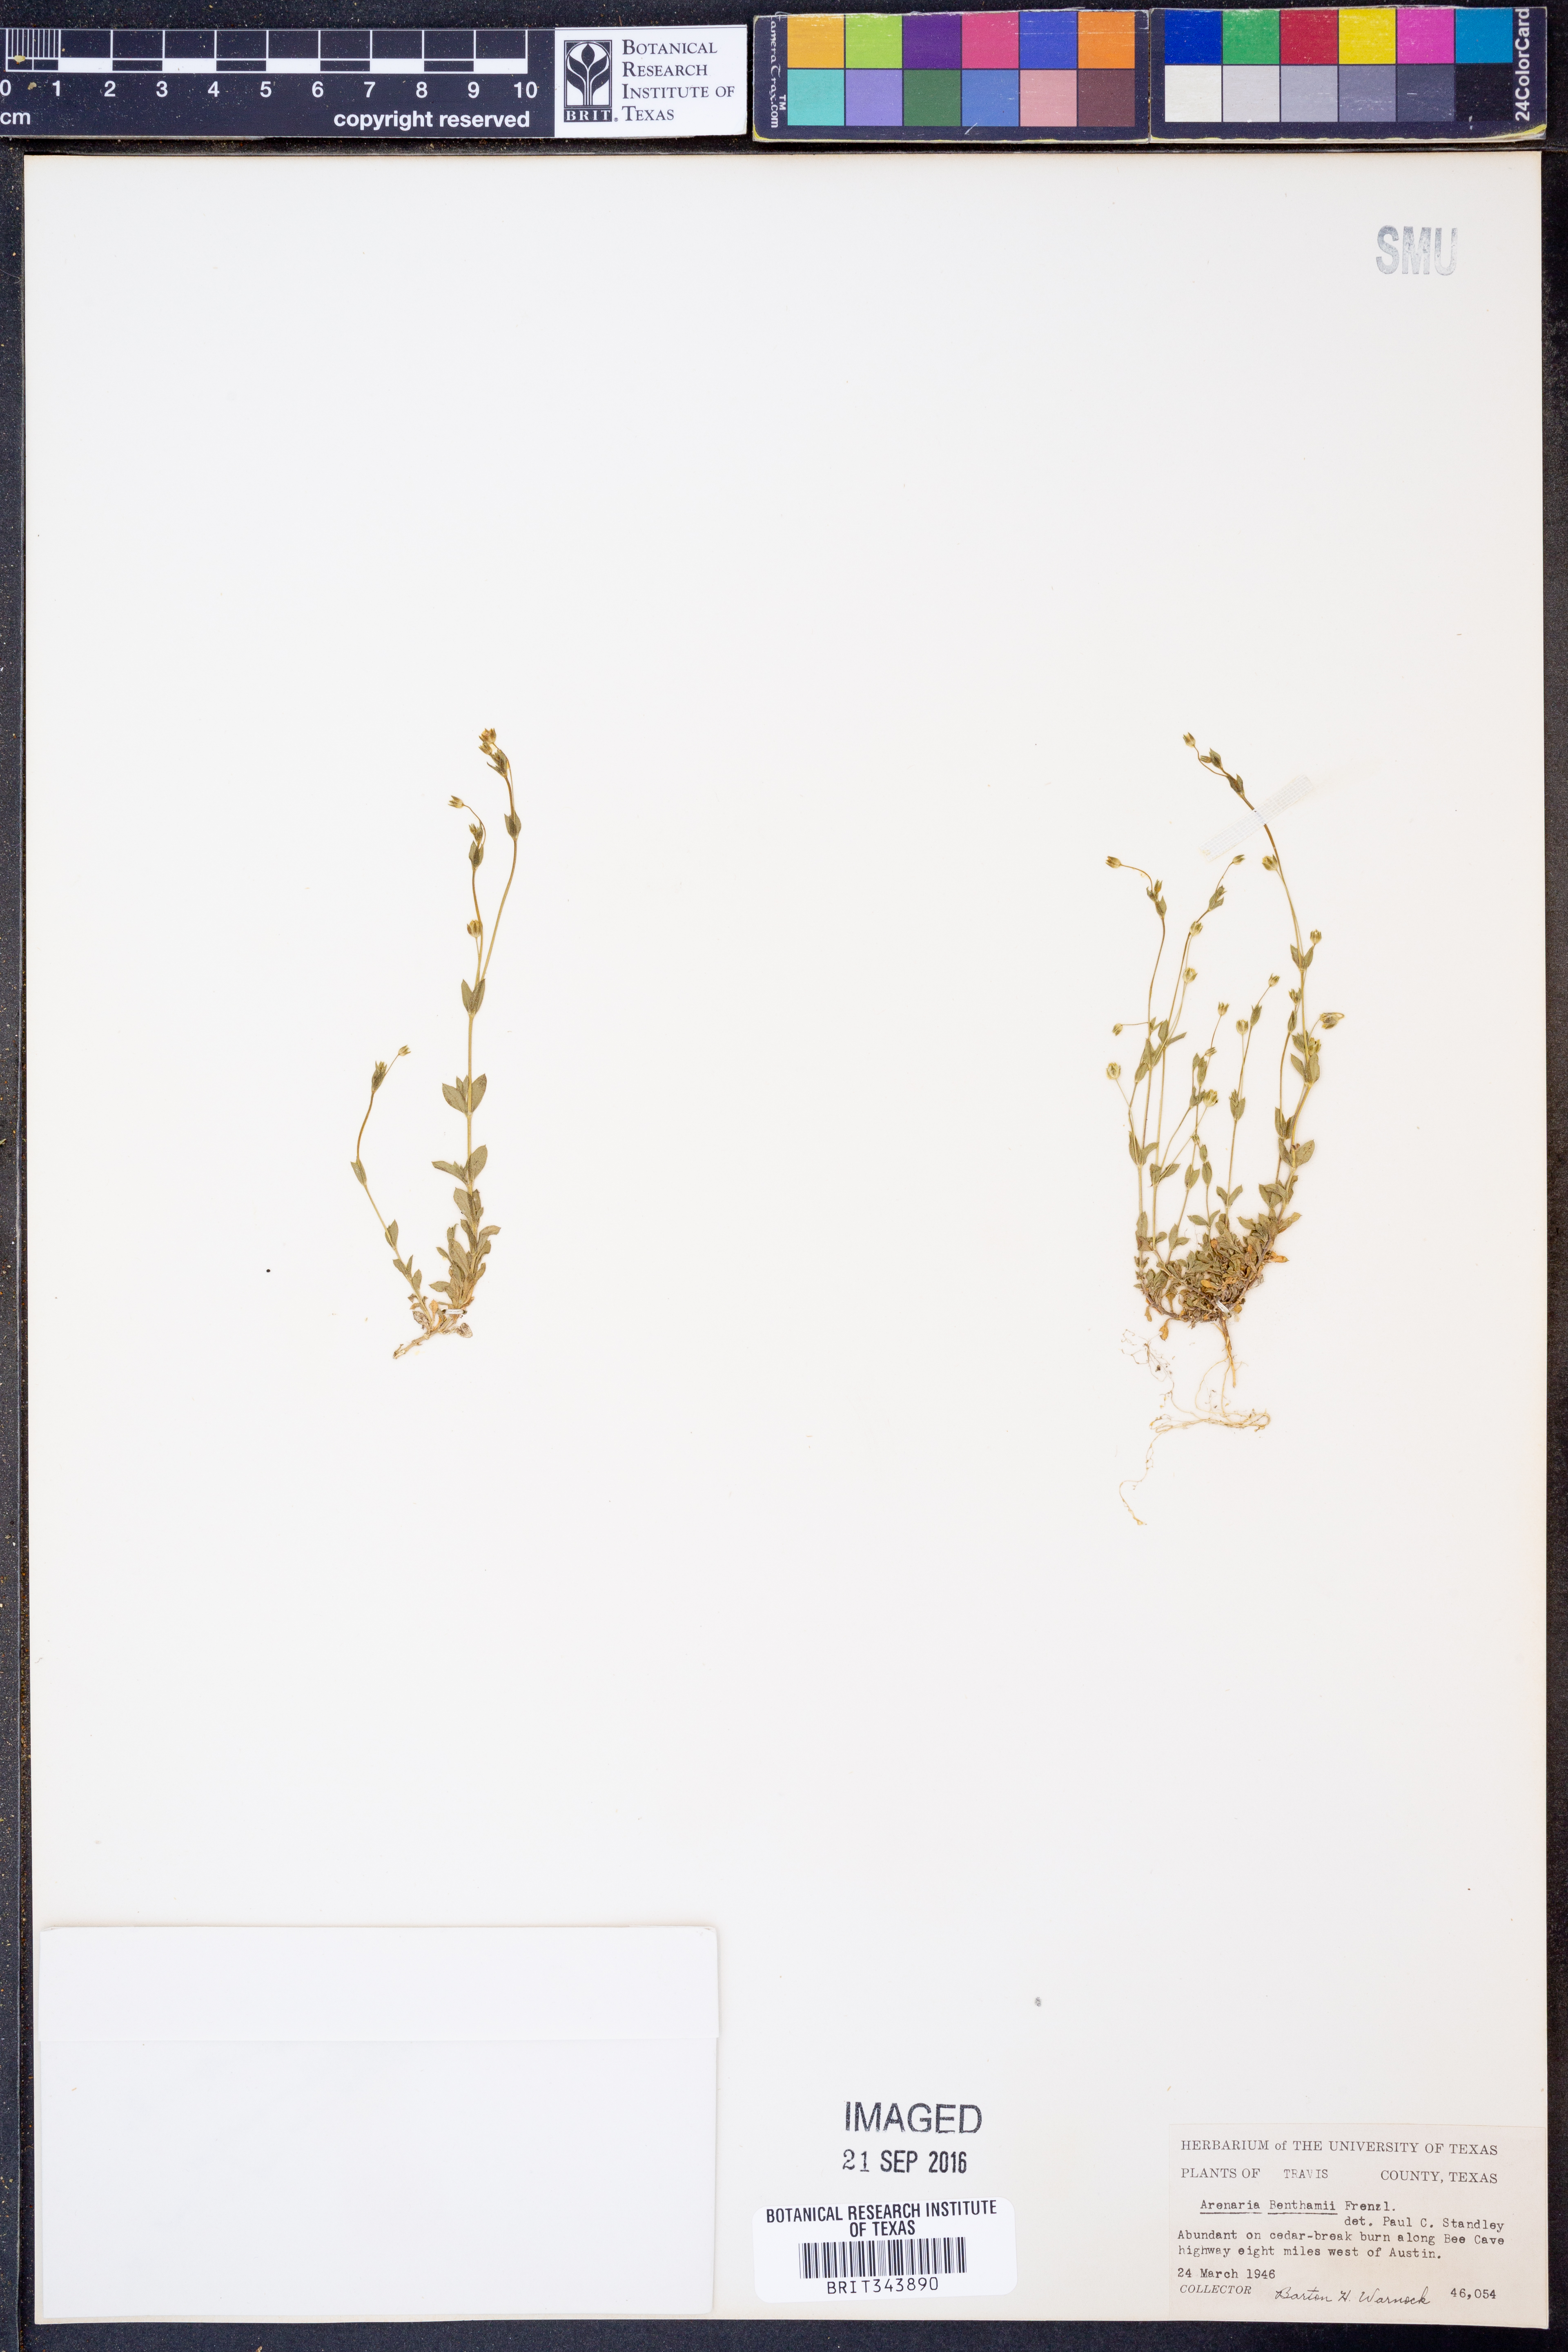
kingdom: Plantae
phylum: Tracheophyta
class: Magnoliopsida
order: Caryophyllales
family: Caryophyllaceae
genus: Arenaria
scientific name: Arenaria benthamii
